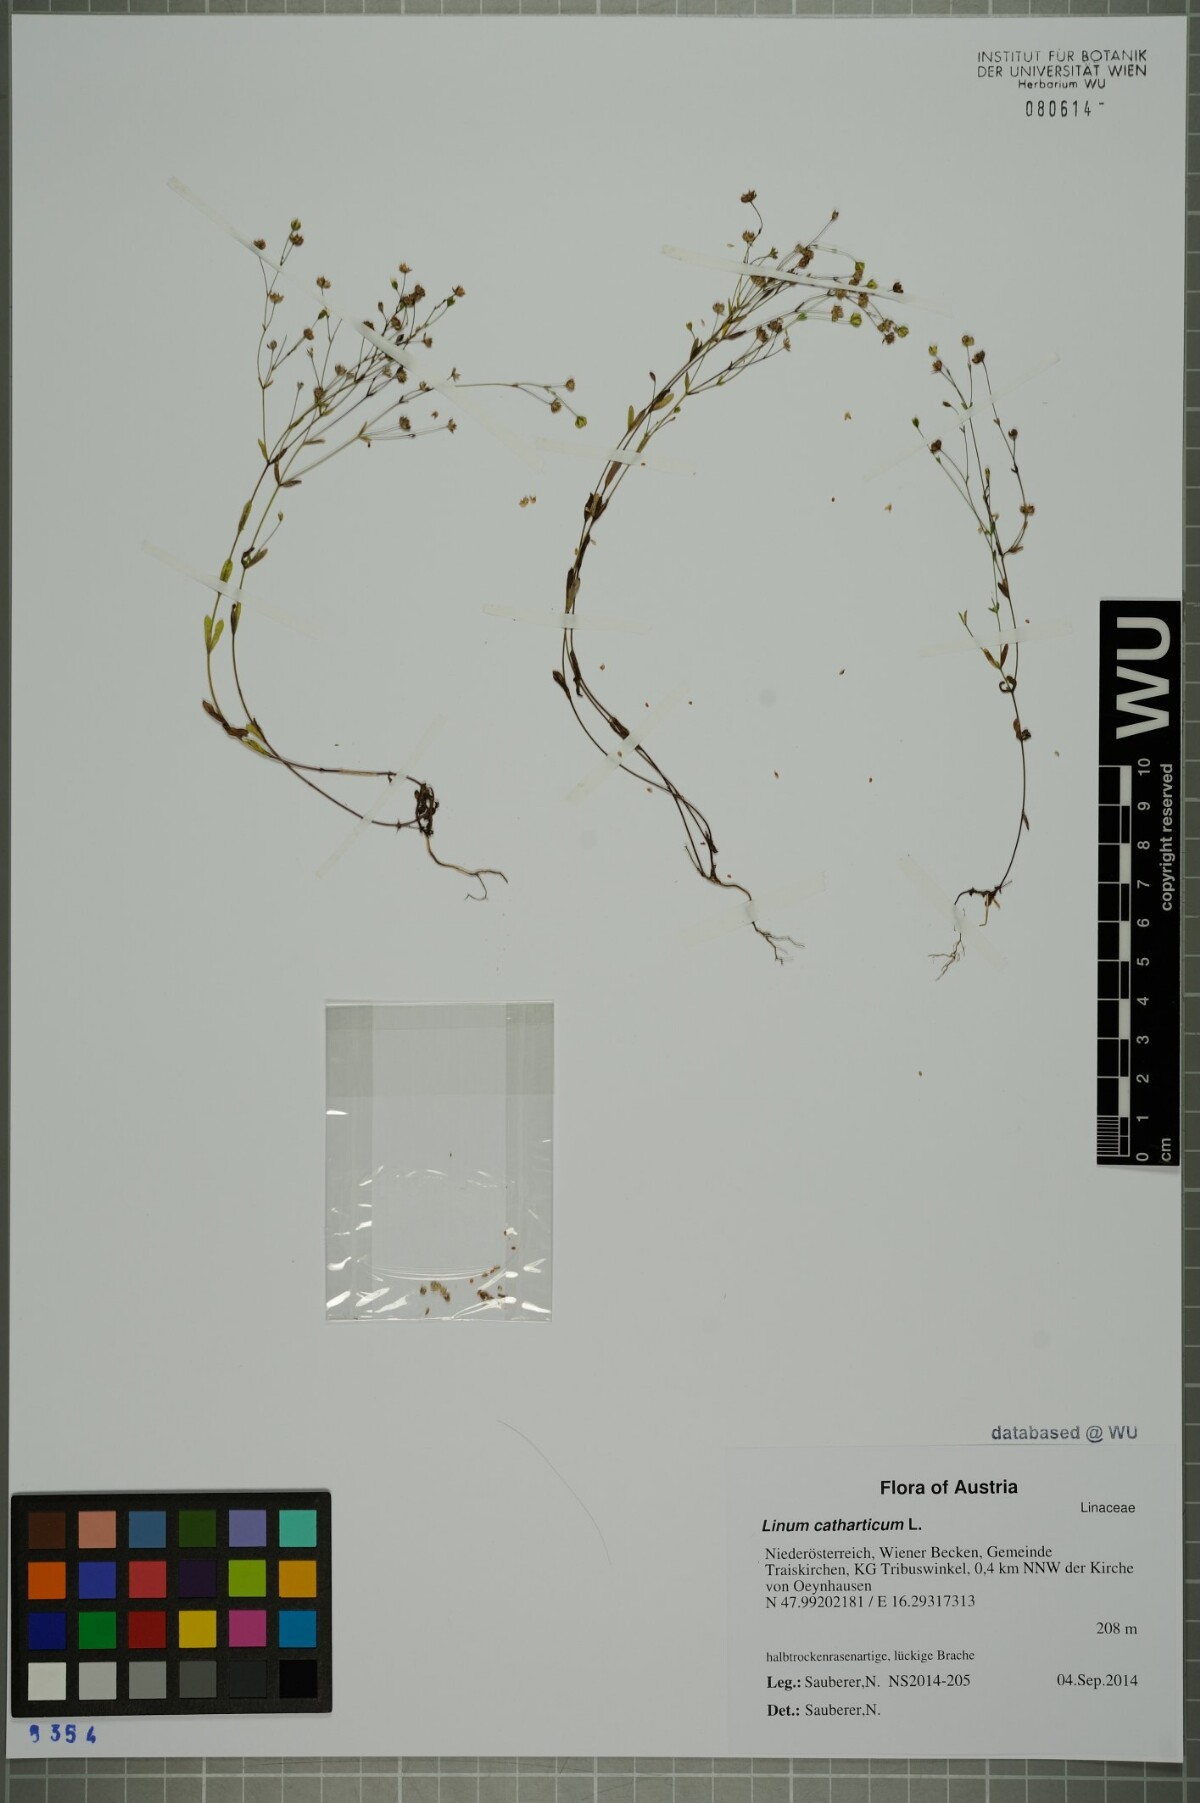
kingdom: Plantae
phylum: Tracheophyta
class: Magnoliopsida
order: Malpighiales
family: Linaceae
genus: Linum
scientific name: Linum catharticum
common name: Fairy flax
